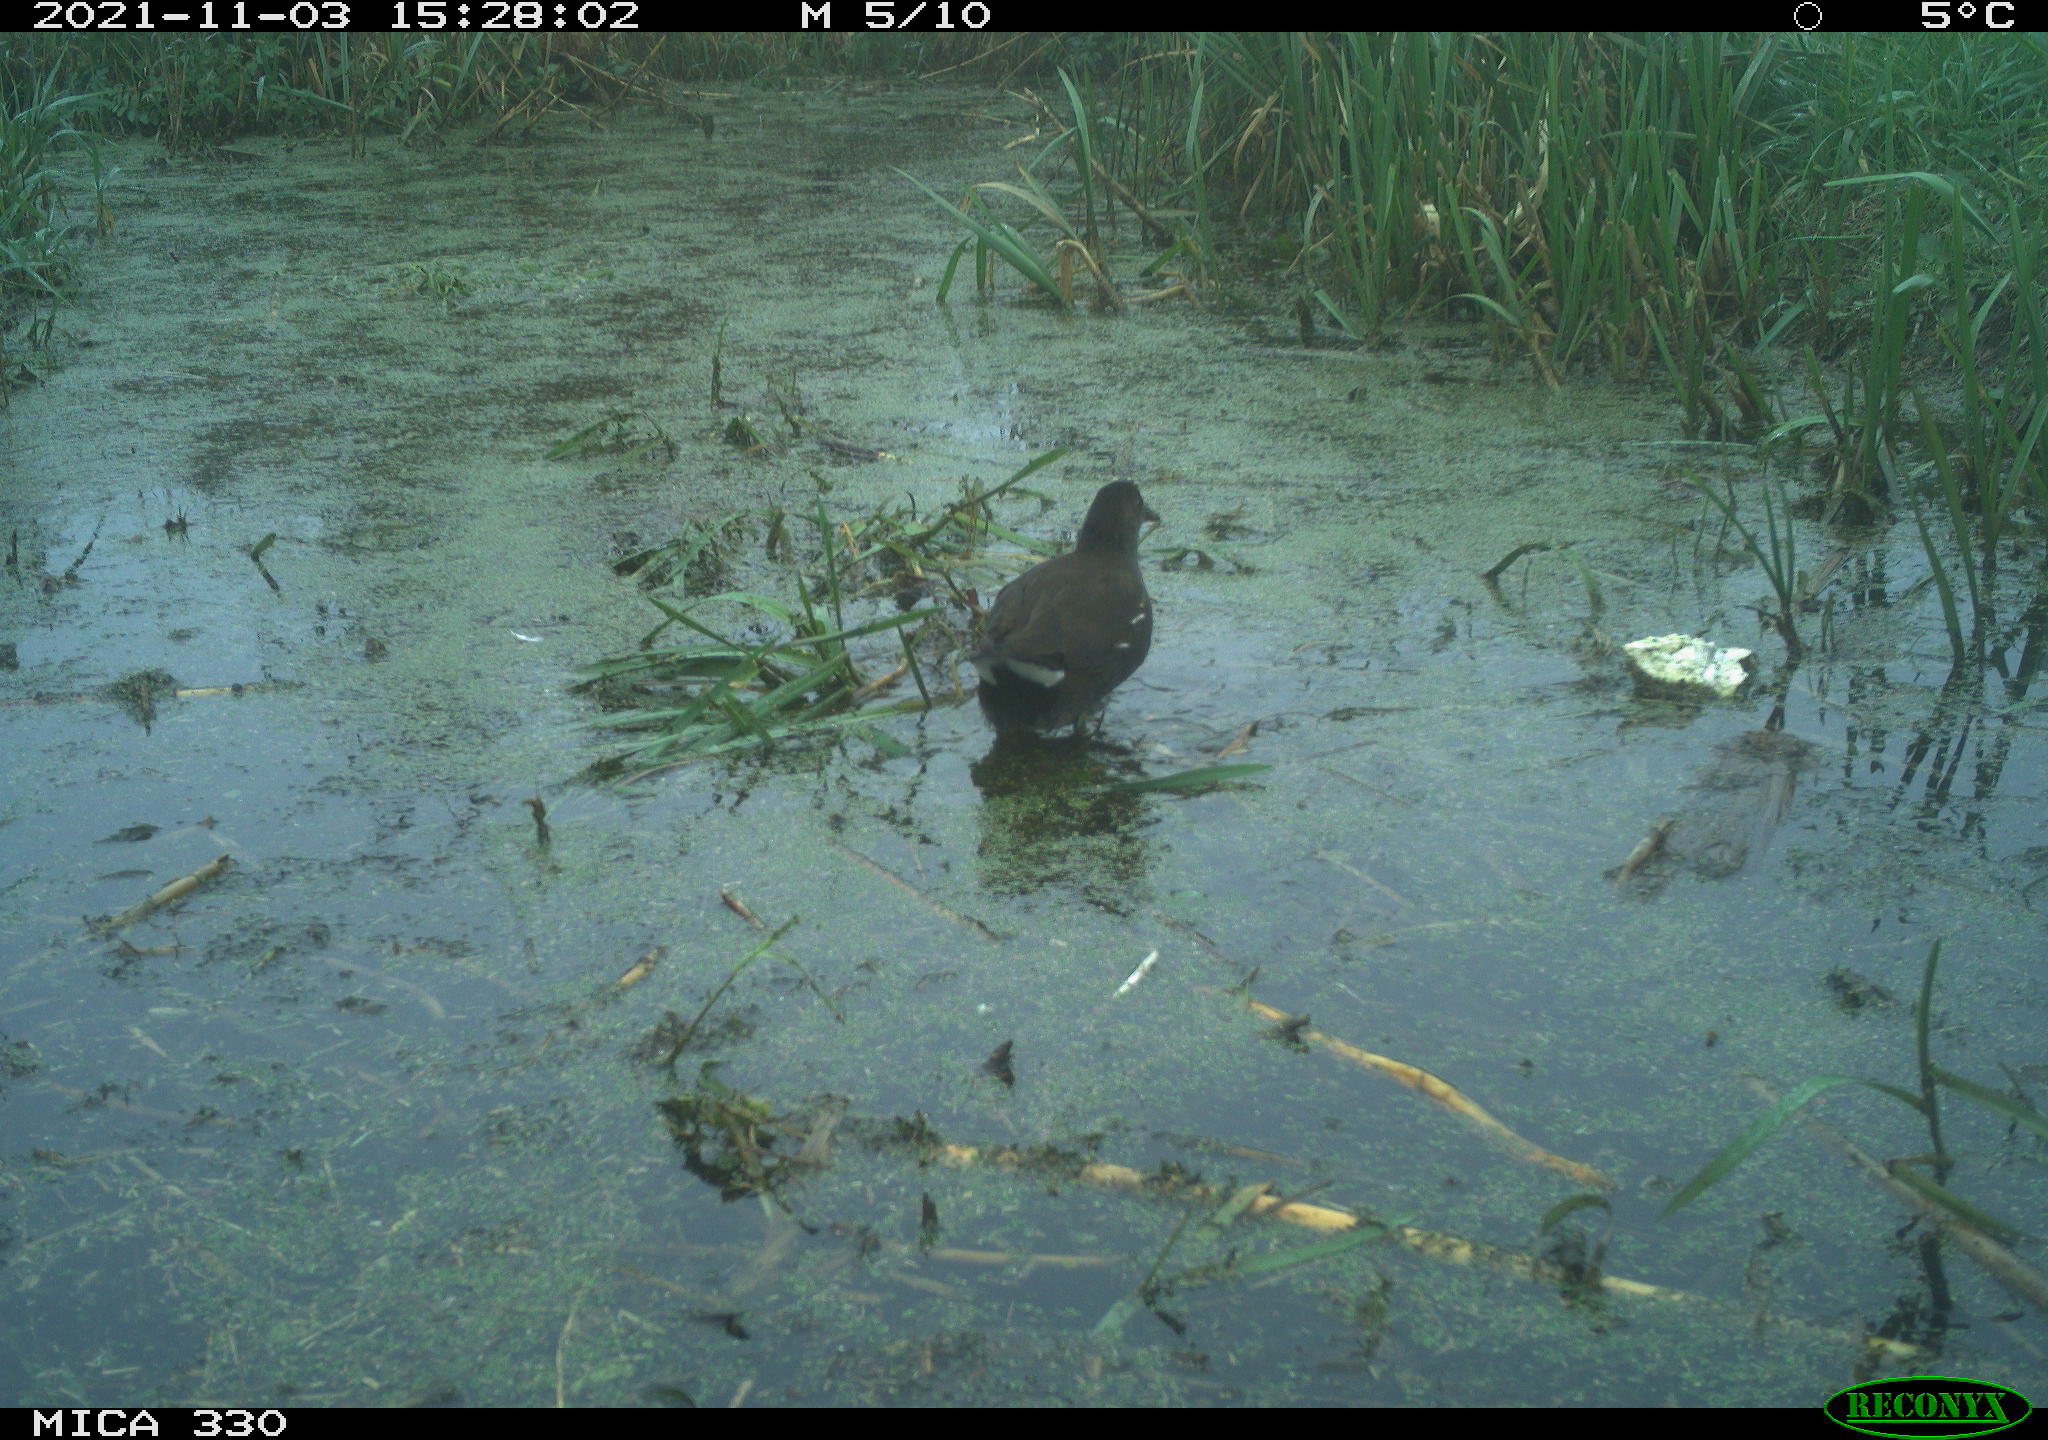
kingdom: Animalia
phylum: Chordata
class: Aves
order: Gruiformes
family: Rallidae
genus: Gallinula
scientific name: Gallinula chloropus
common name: Common moorhen
